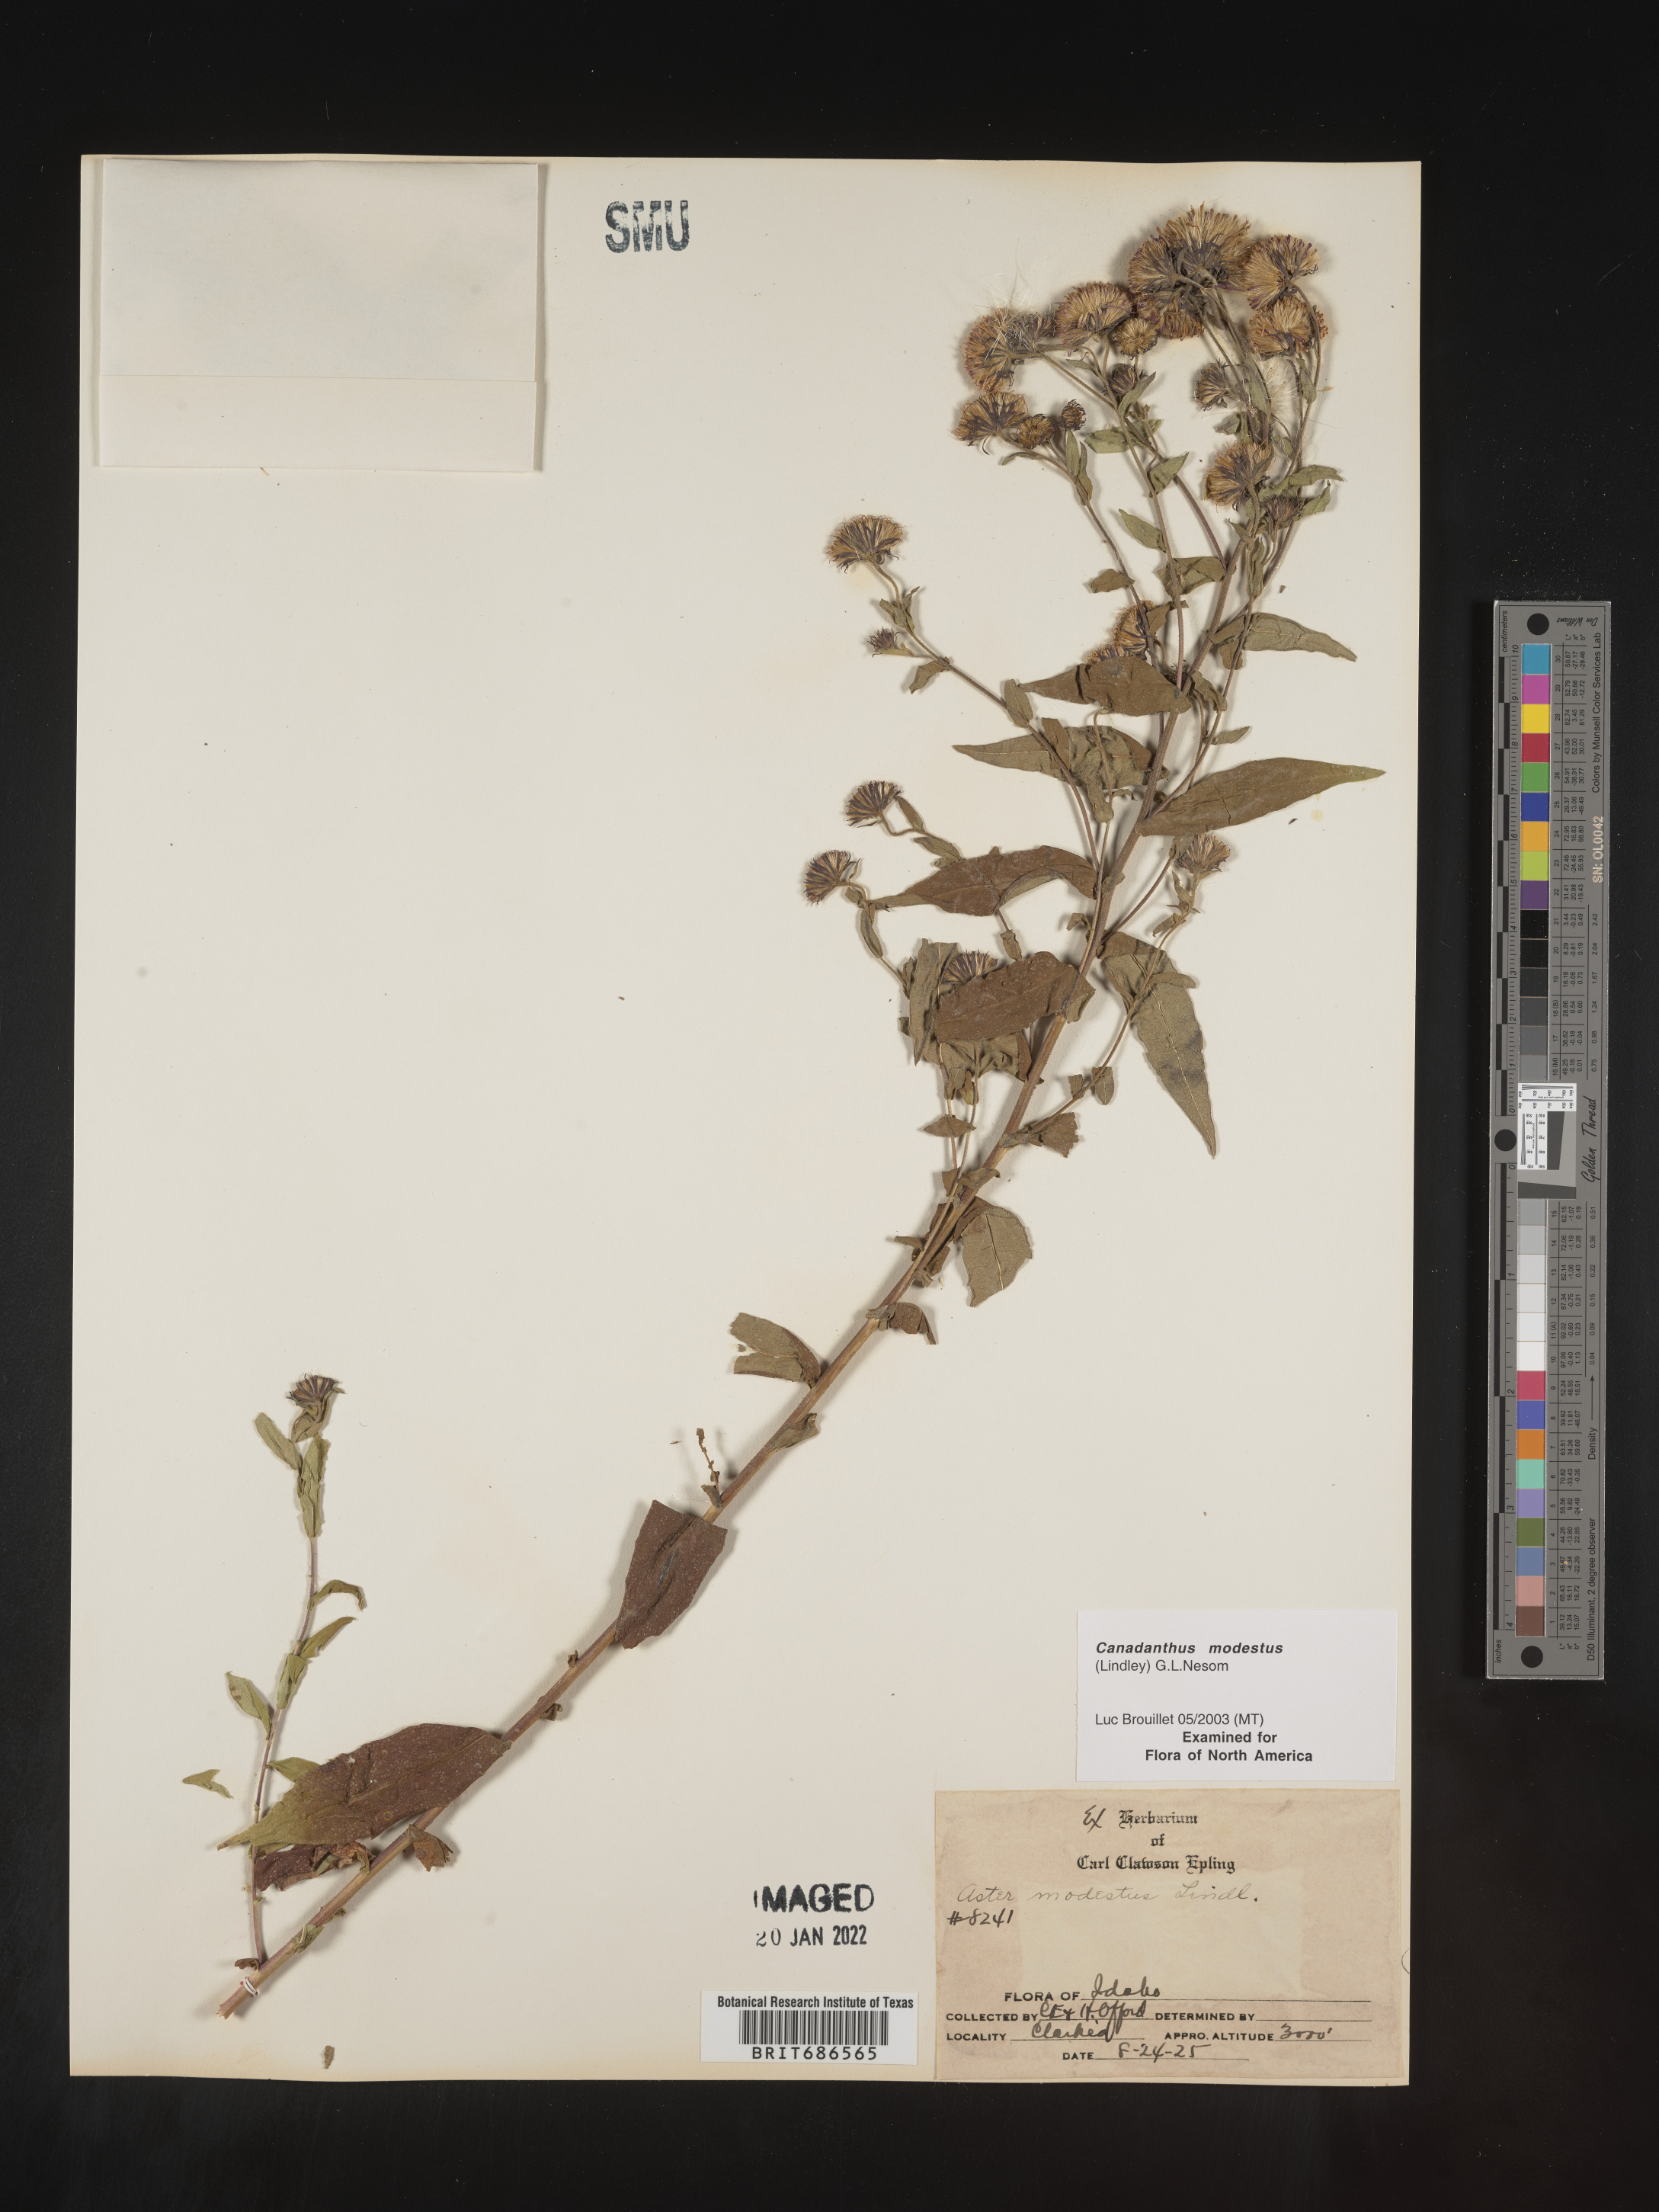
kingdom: Plantae
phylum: Tracheophyta
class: Magnoliopsida
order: Asterales
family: Asteraceae
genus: Canadanthus
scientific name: Canadanthus modestus
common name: Great northern aster
